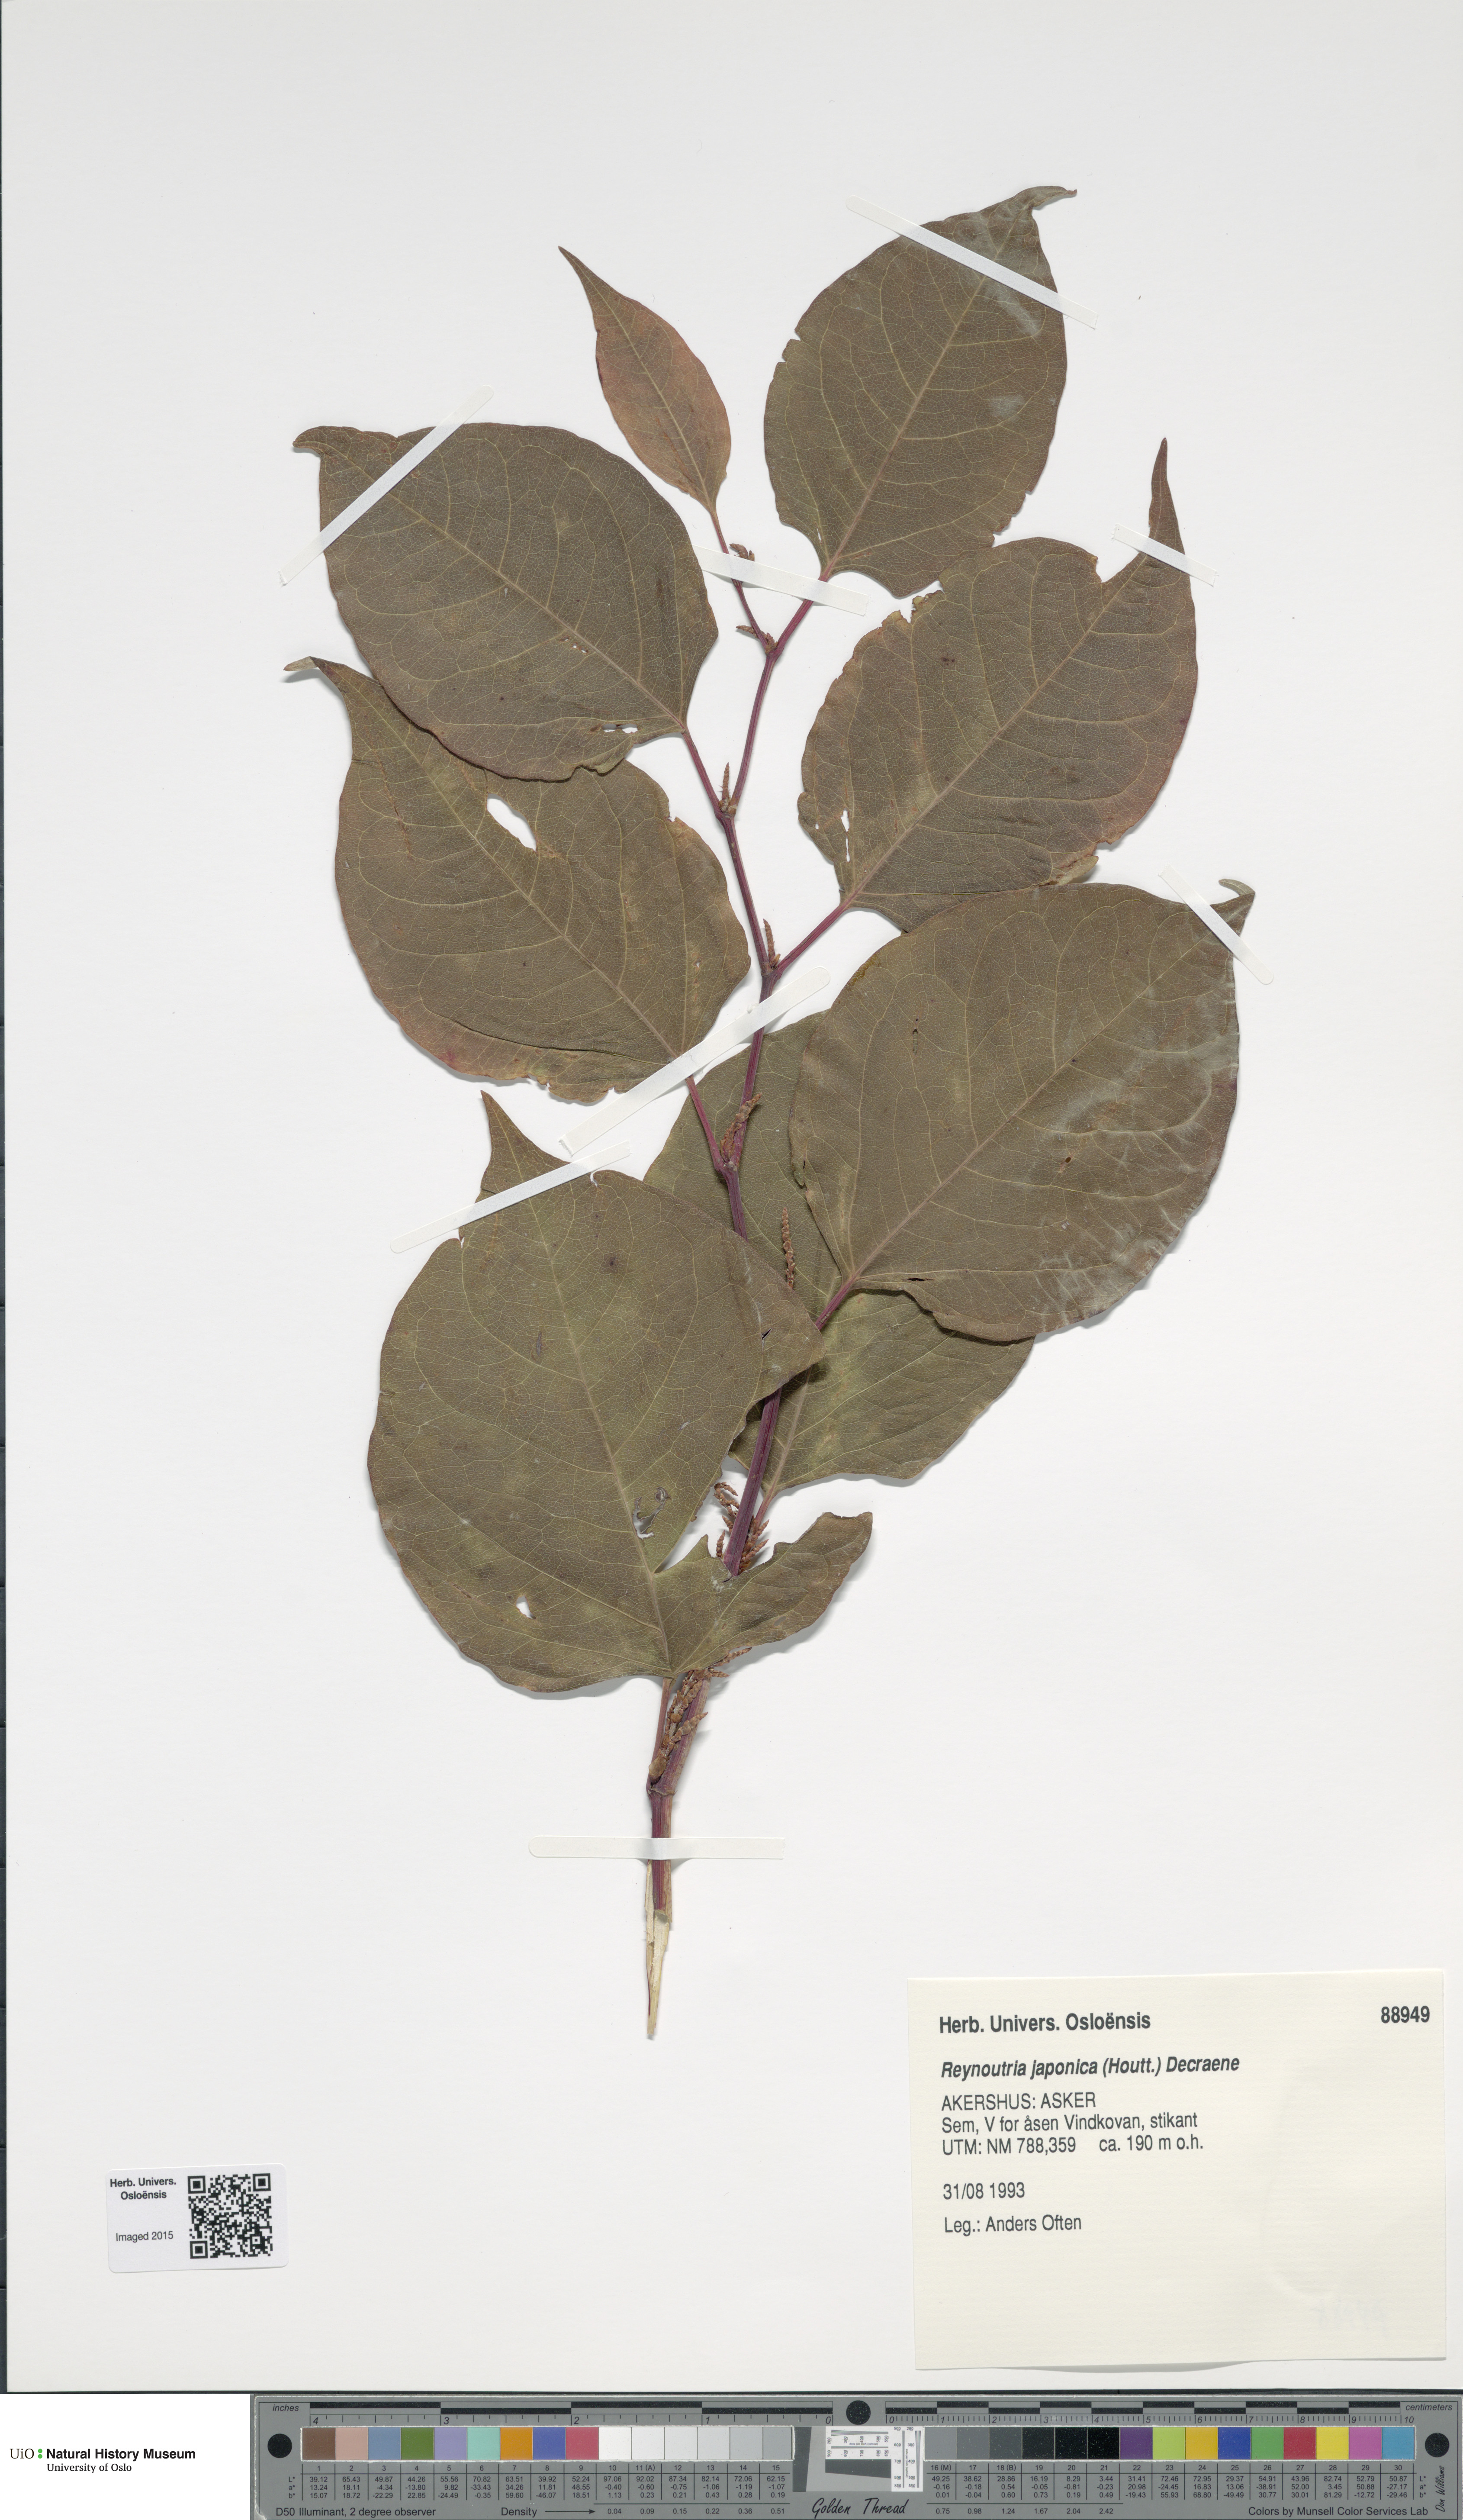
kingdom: Plantae
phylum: Tracheophyta
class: Magnoliopsida
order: Caryophyllales
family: Polygonaceae
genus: Reynoutria
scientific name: Reynoutria japonica
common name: Japanese knotweed
